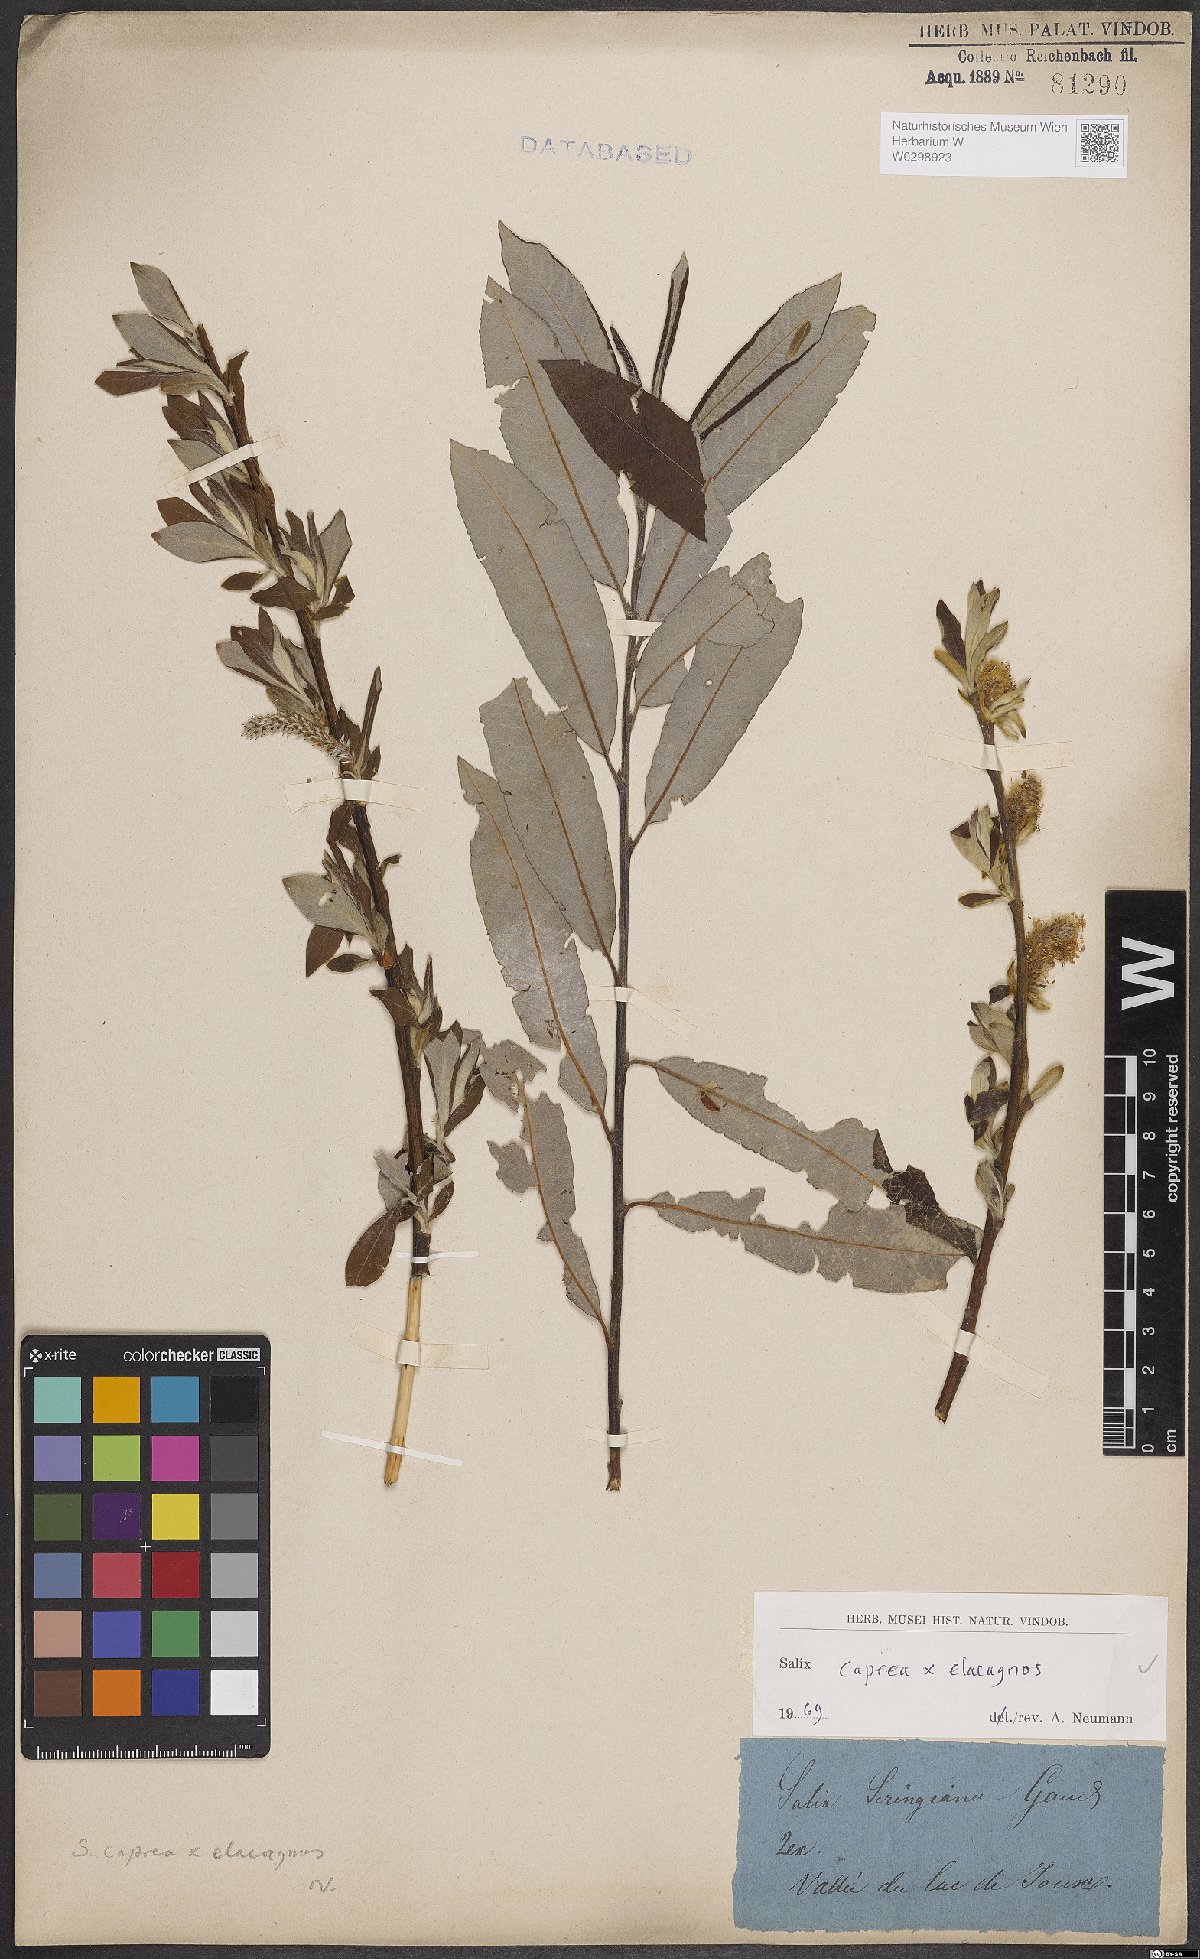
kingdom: Plantae
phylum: Tracheophyta
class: Magnoliopsida
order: Malpighiales
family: Salicaceae
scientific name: Salicaceae
